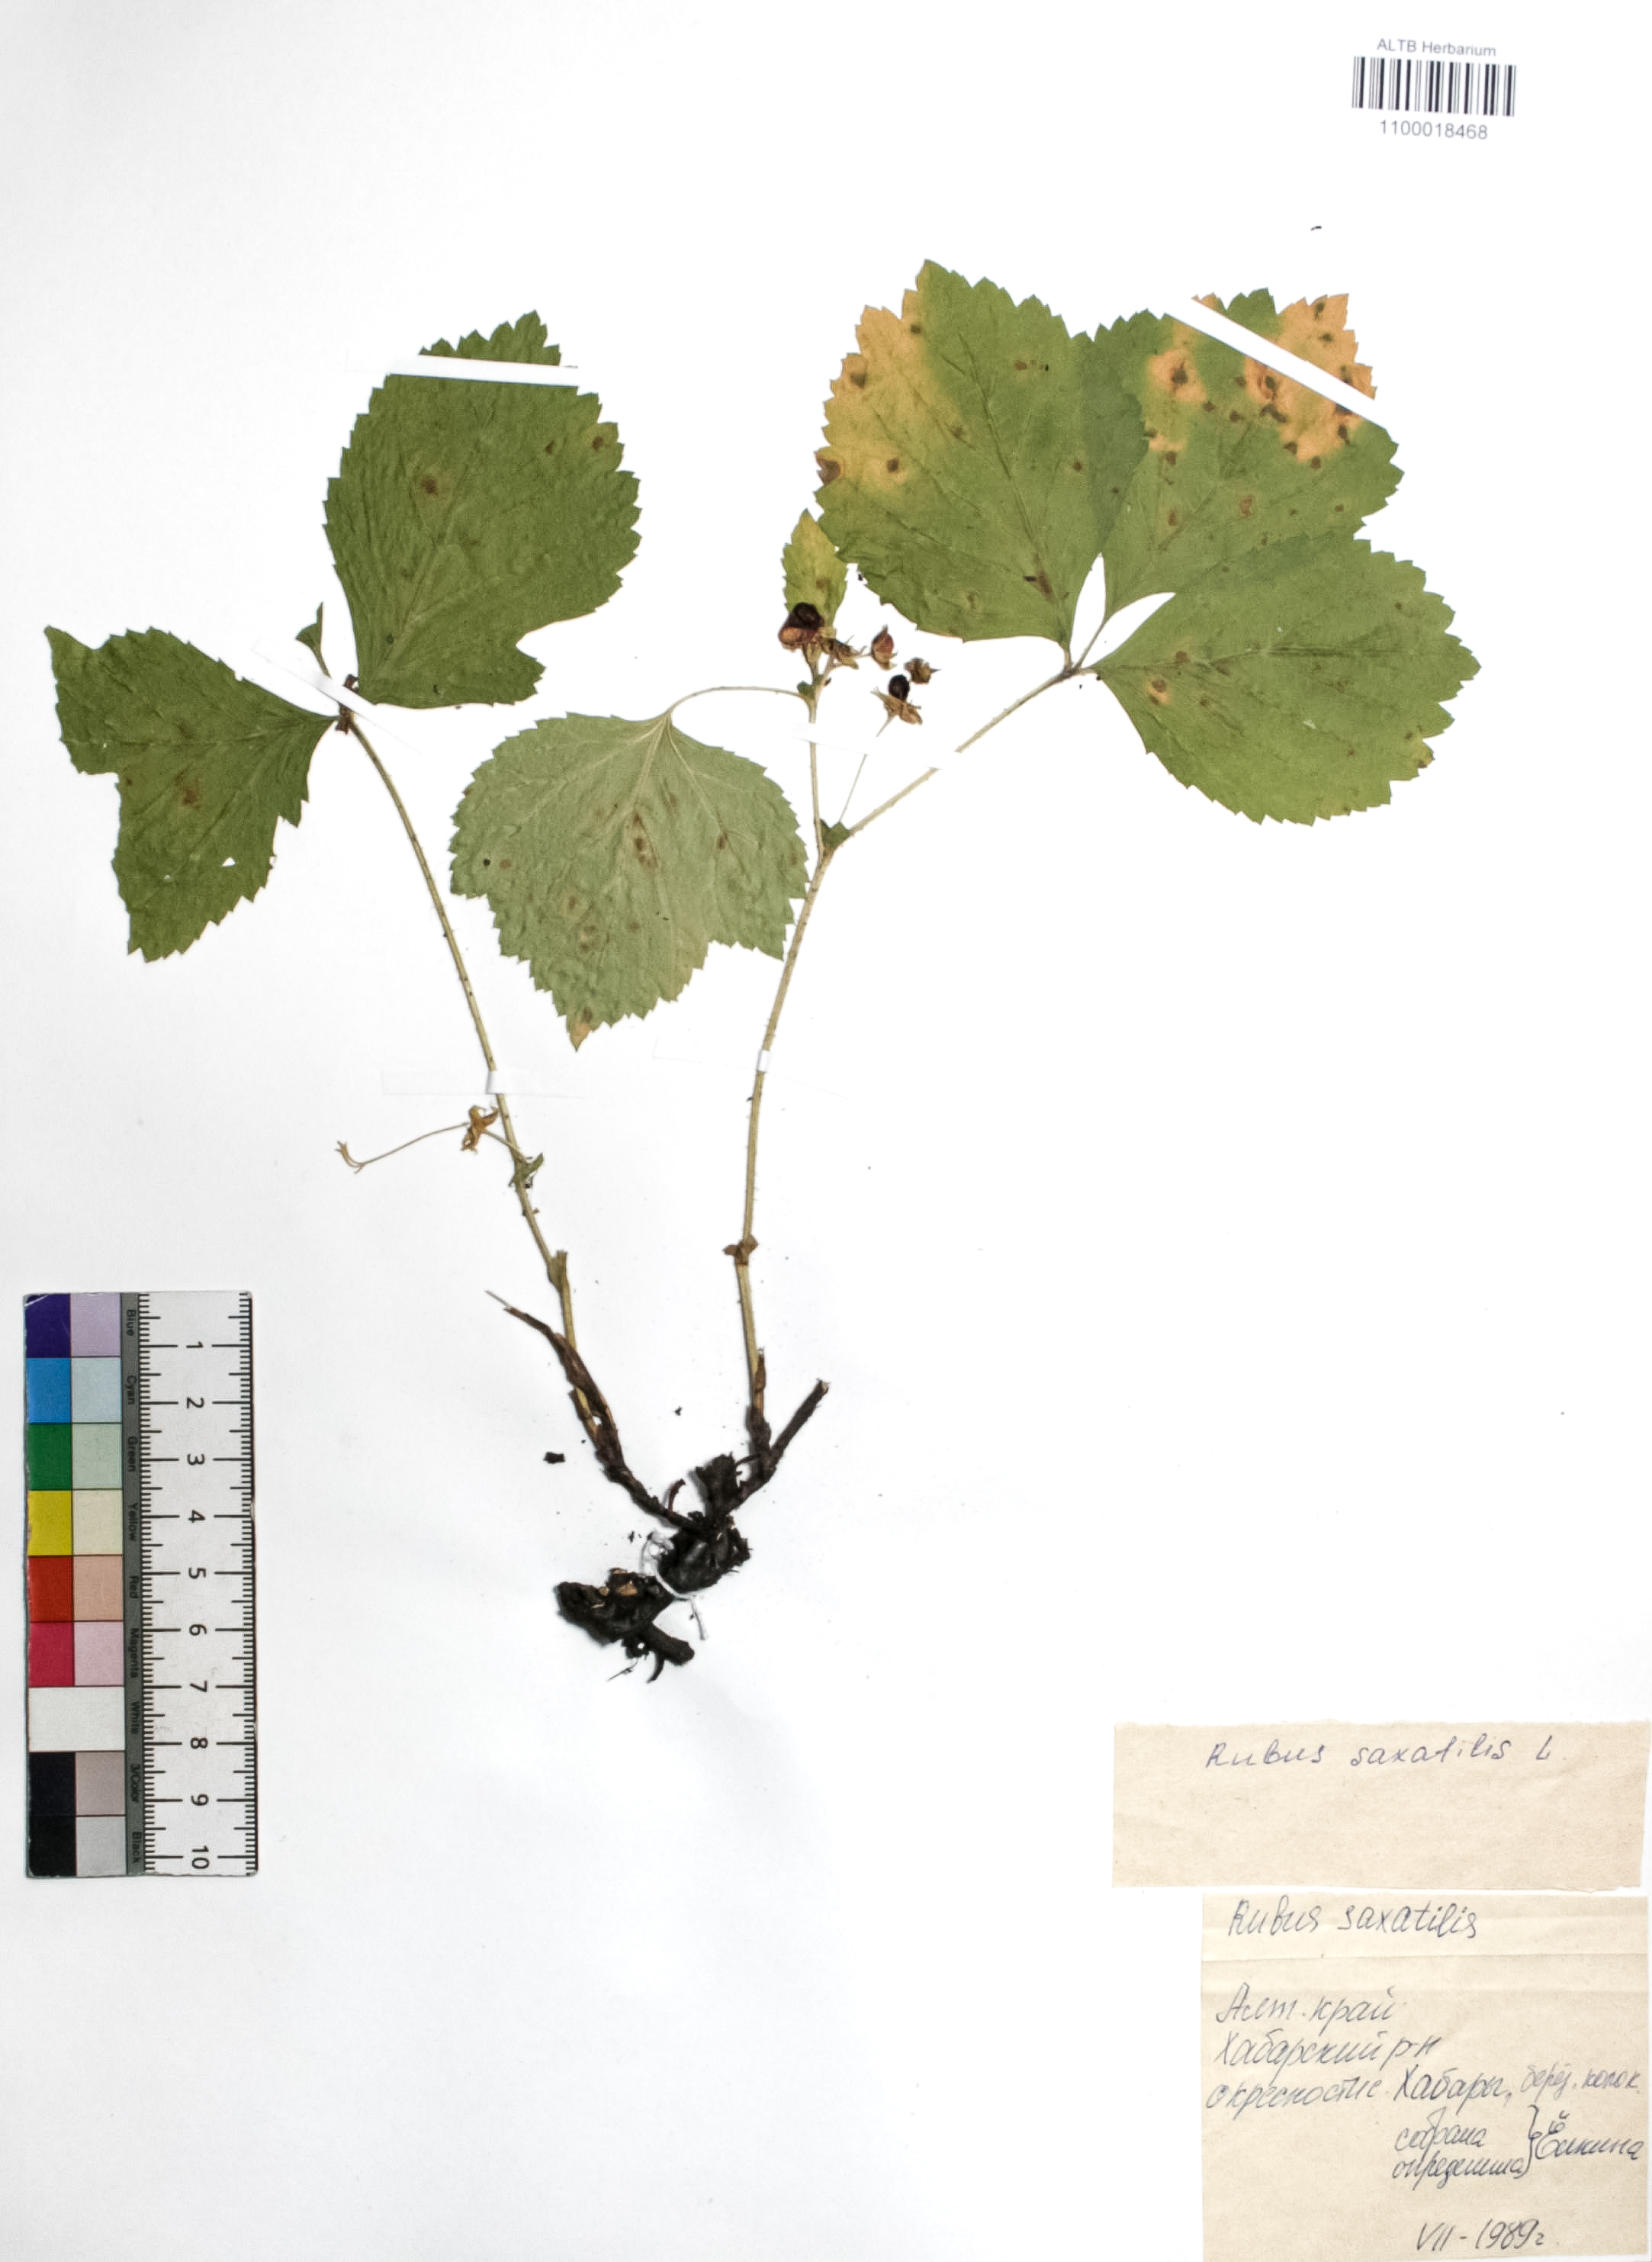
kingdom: Plantae
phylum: Tracheophyta
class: Magnoliopsida
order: Rosales
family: Rosaceae
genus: Rubus
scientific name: Rubus saxatilis
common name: Stone bramble
